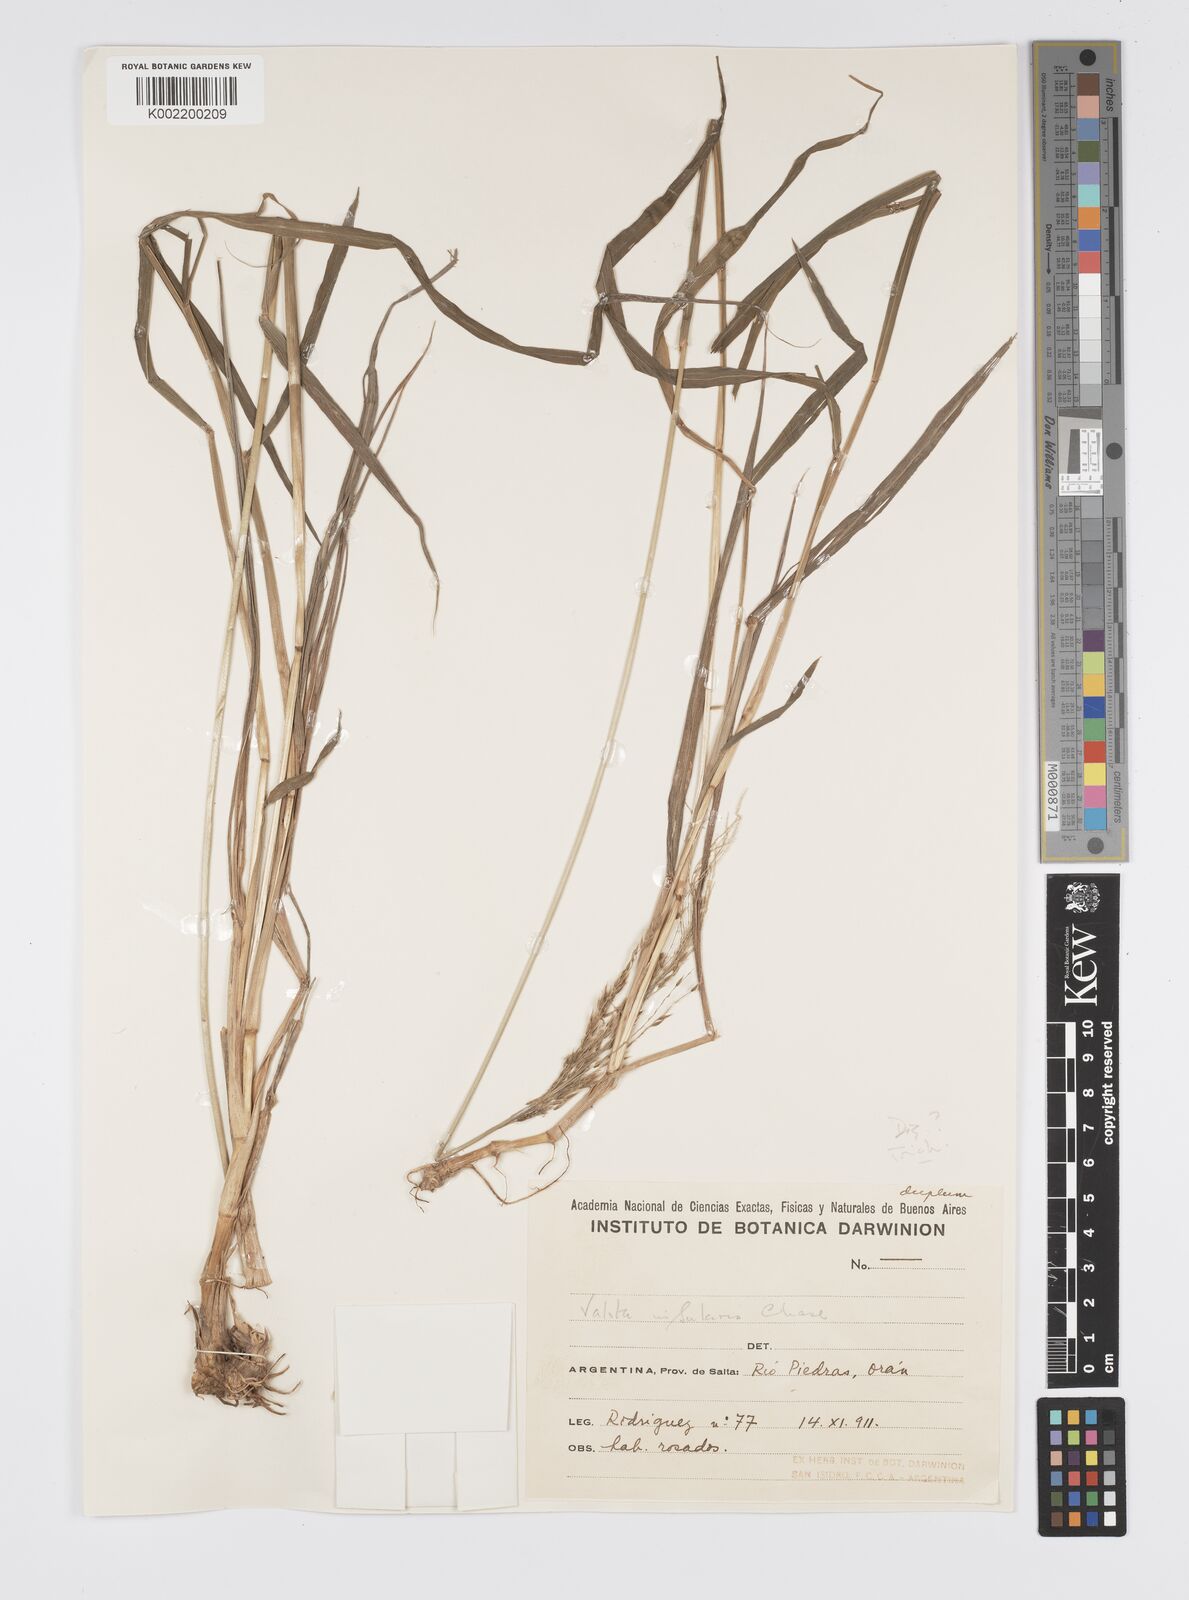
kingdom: Plantae
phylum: Tracheophyta
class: Liliopsida
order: Poales
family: Poaceae
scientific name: Poaceae
